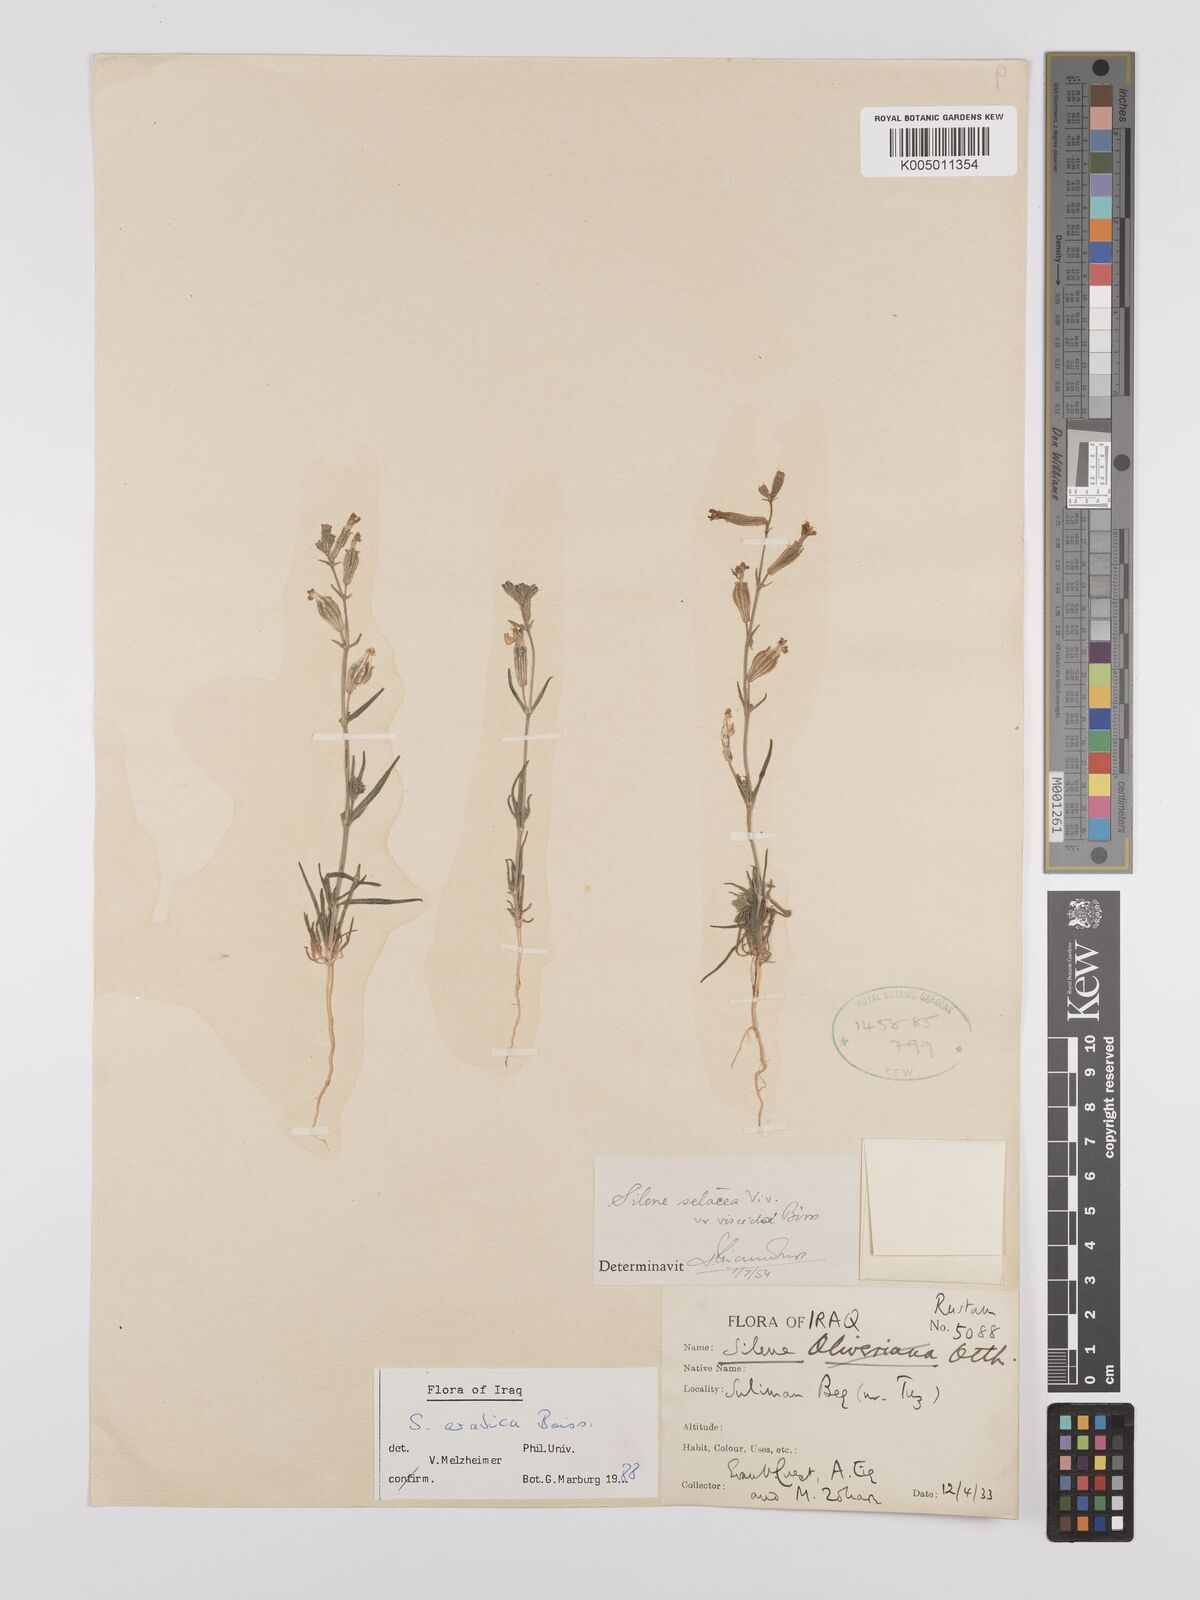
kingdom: Plantae
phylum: Tracheophyta
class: Magnoliopsida
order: Caryophyllales
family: Caryophyllaceae
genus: Silene
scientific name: Silene arabica
